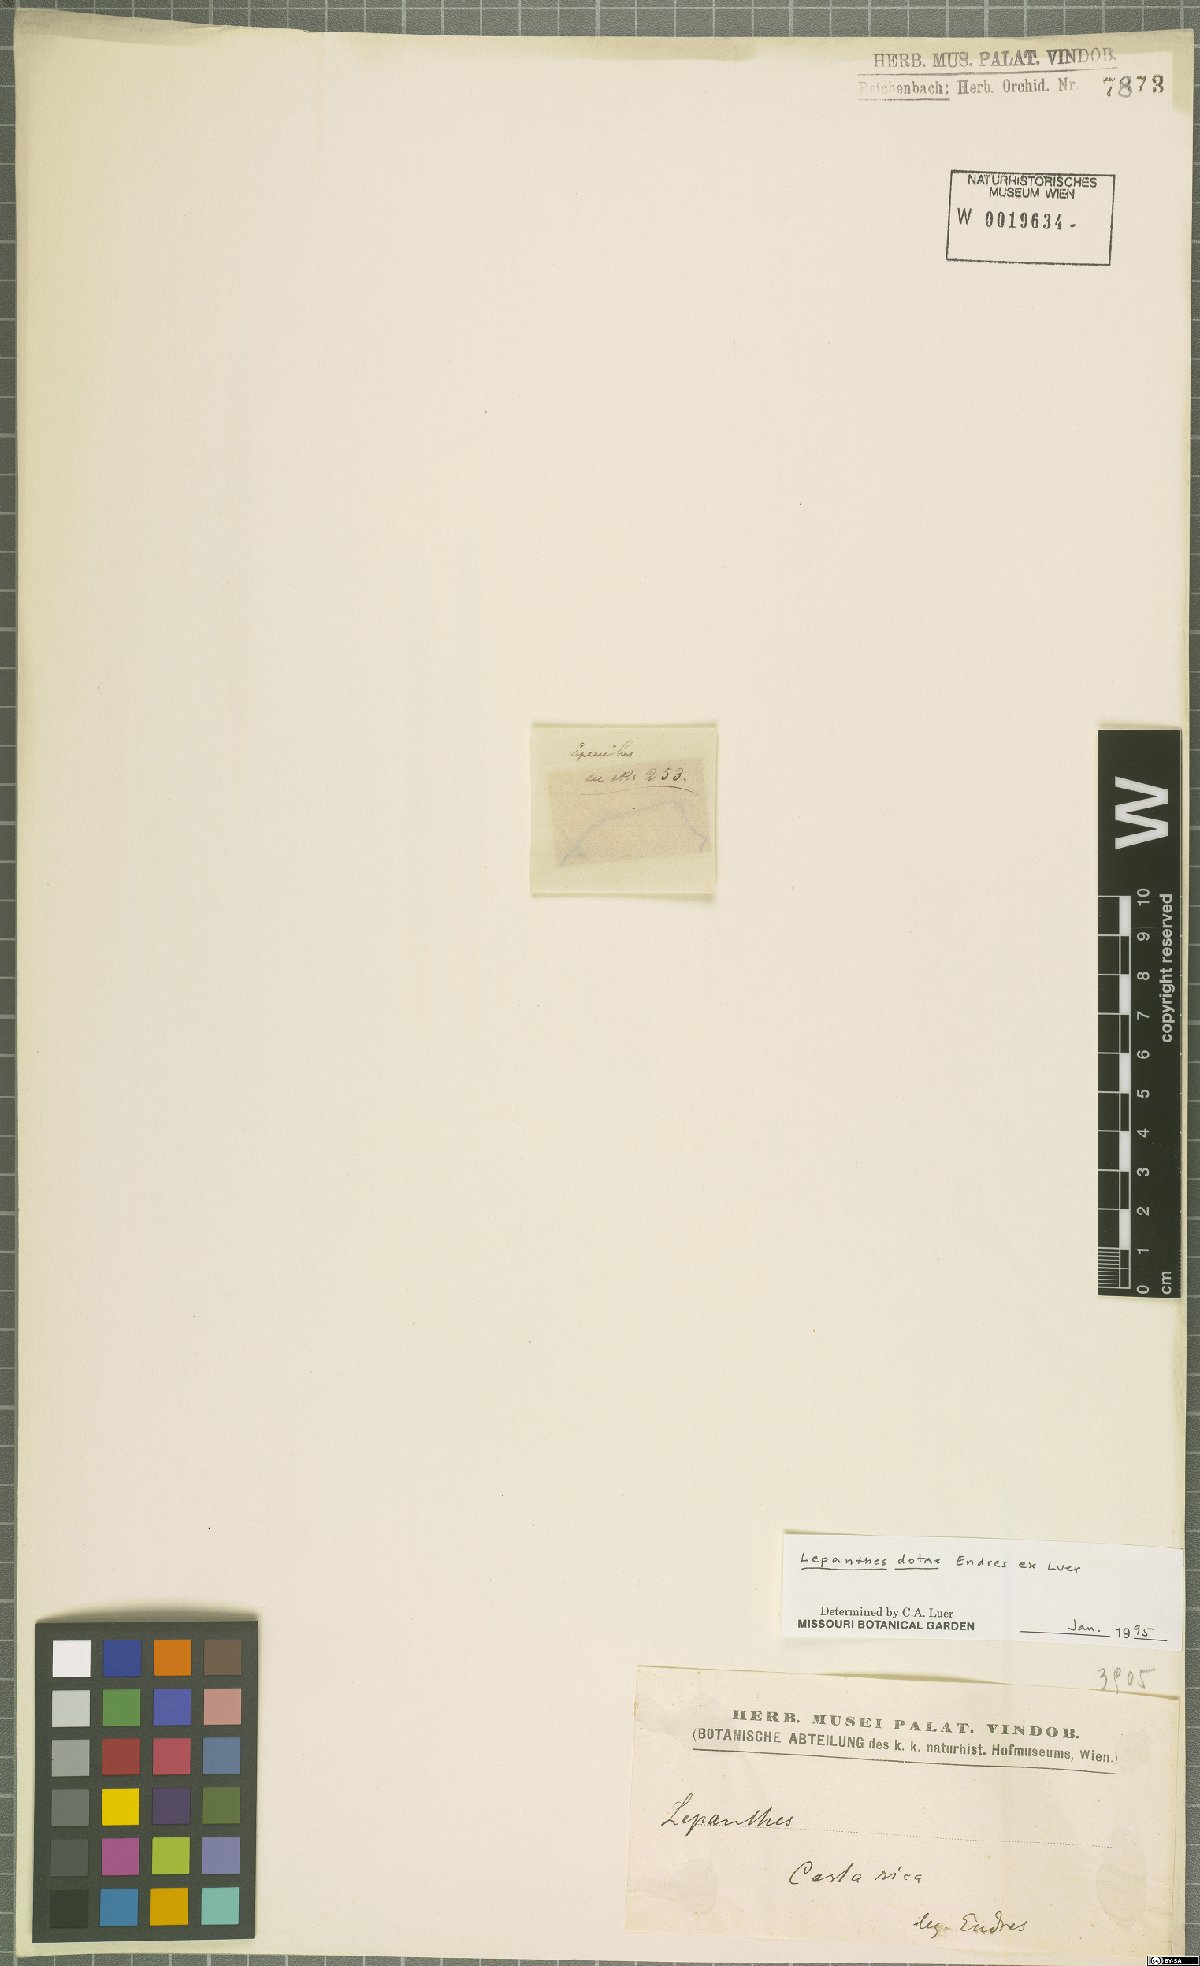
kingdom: Plantae
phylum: Tracheophyta
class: Liliopsida
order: Asparagales
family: Orchidaceae
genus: Lepanthes
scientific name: Lepanthes dotae
